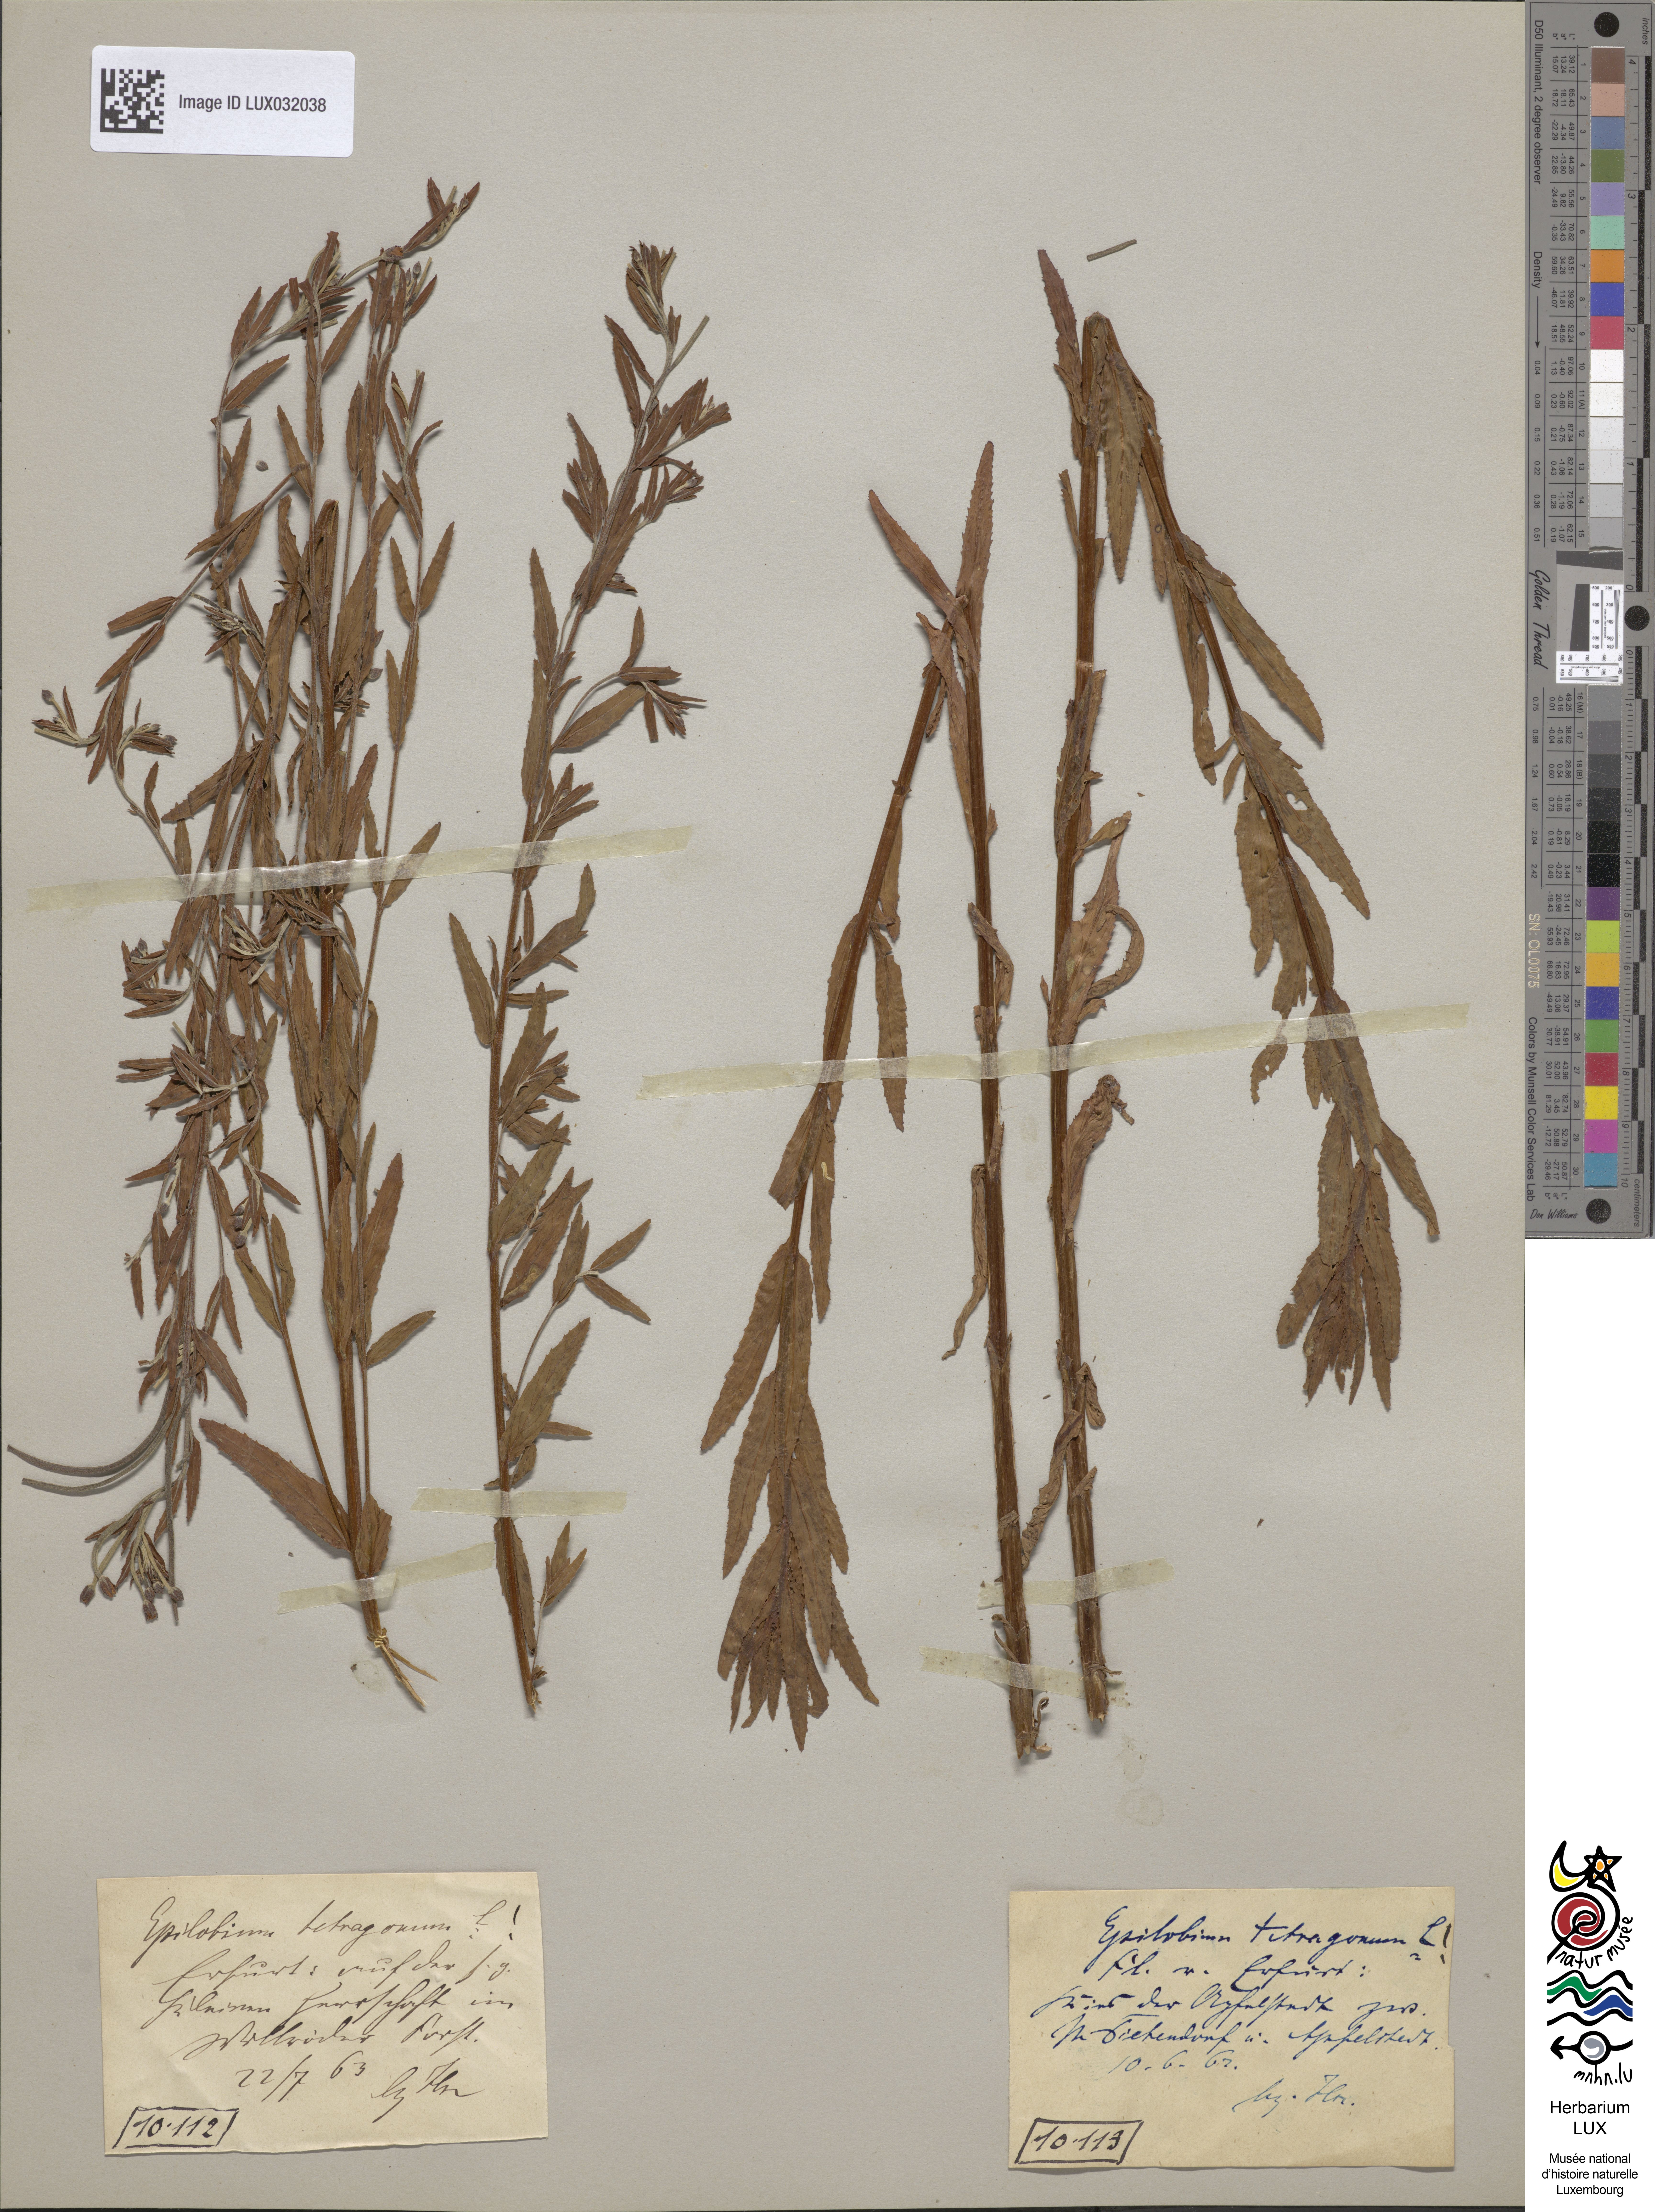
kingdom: Plantae
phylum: Tracheophyta
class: Magnoliopsida
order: Lamiales
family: Orobanchaceae
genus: Phelipanche
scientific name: Phelipanche purpurea
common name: Purple broomrape
